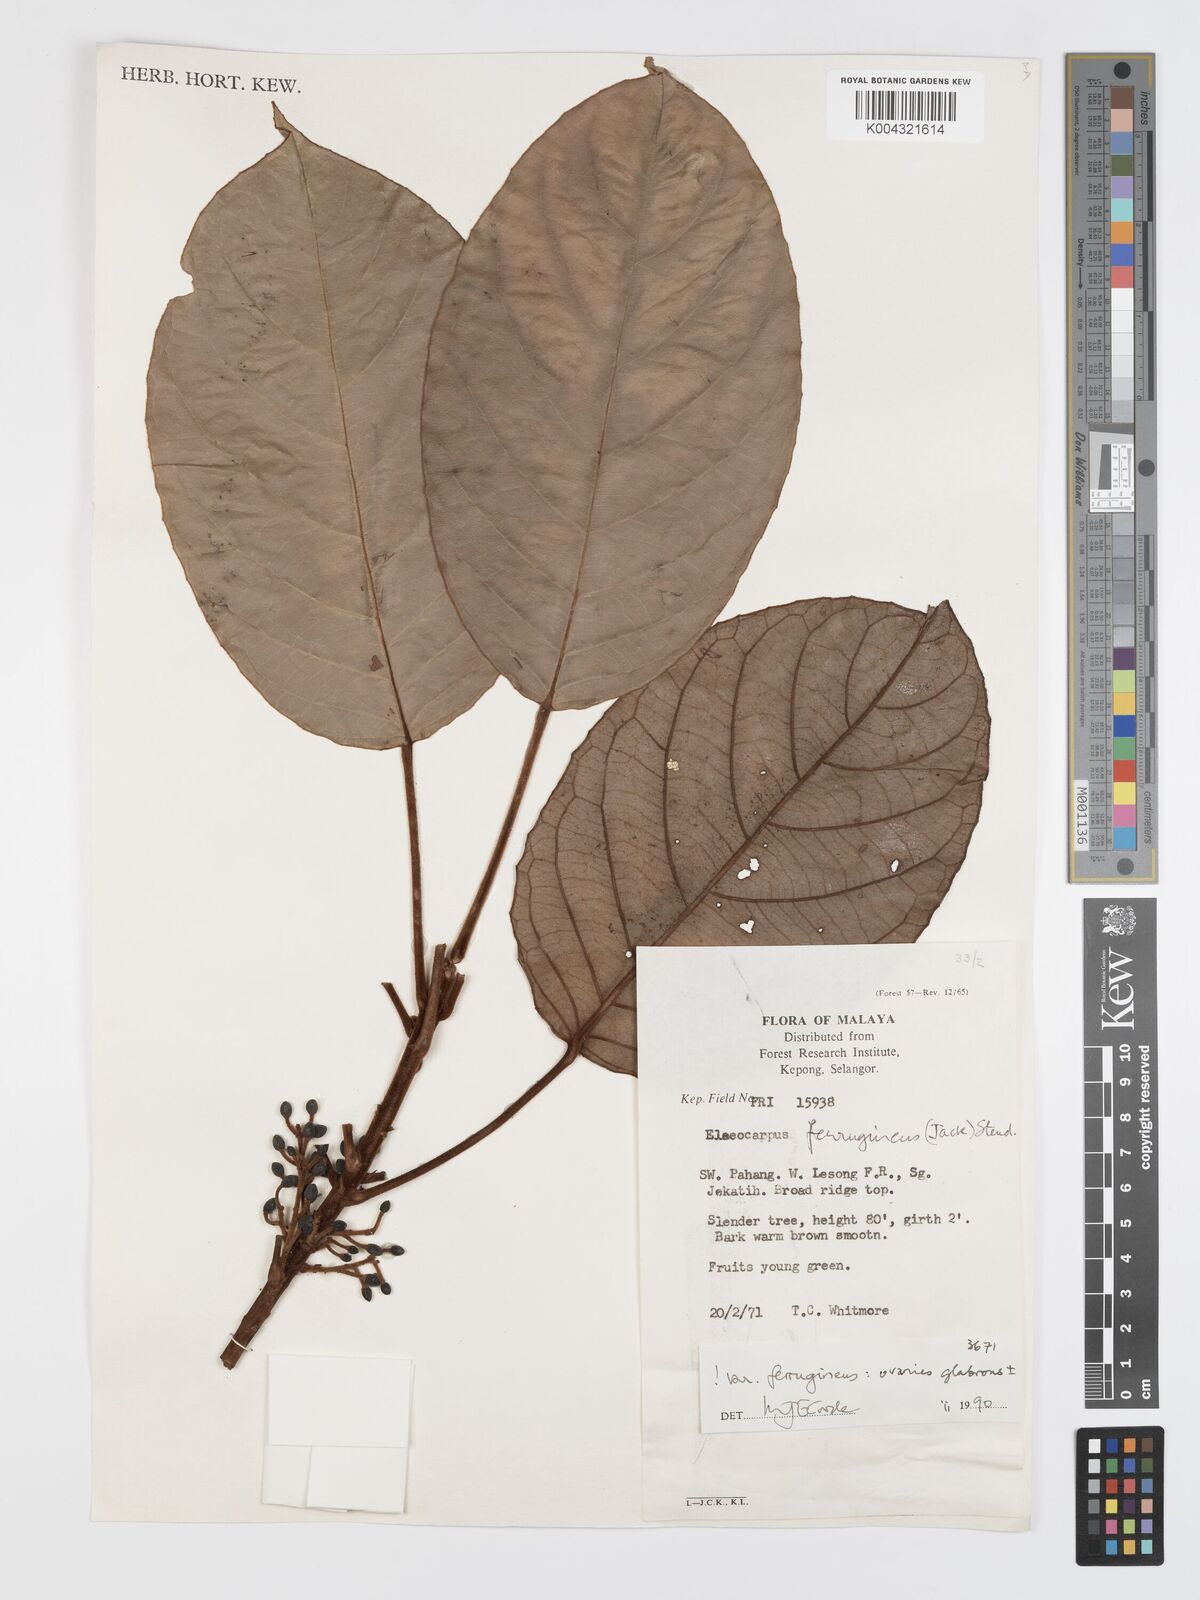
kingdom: Plantae
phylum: Tracheophyta
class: Magnoliopsida
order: Oxalidales
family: Elaeocarpaceae
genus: Elaeocarpus
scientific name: Elaeocarpus ferrugineus
